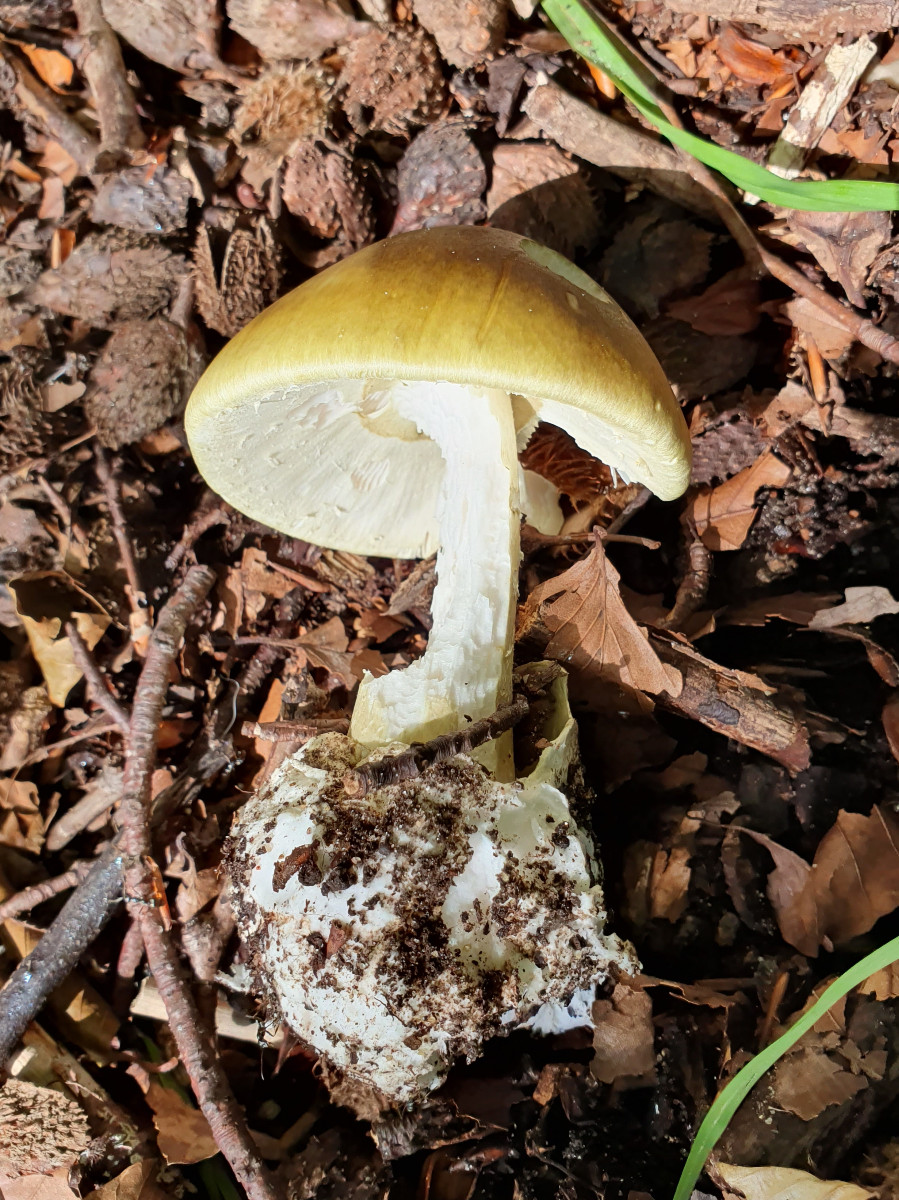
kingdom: Fungi
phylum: Basidiomycota
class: Agaricomycetes
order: Agaricales
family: Amanitaceae
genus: Amanita
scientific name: Amanita phalloides
